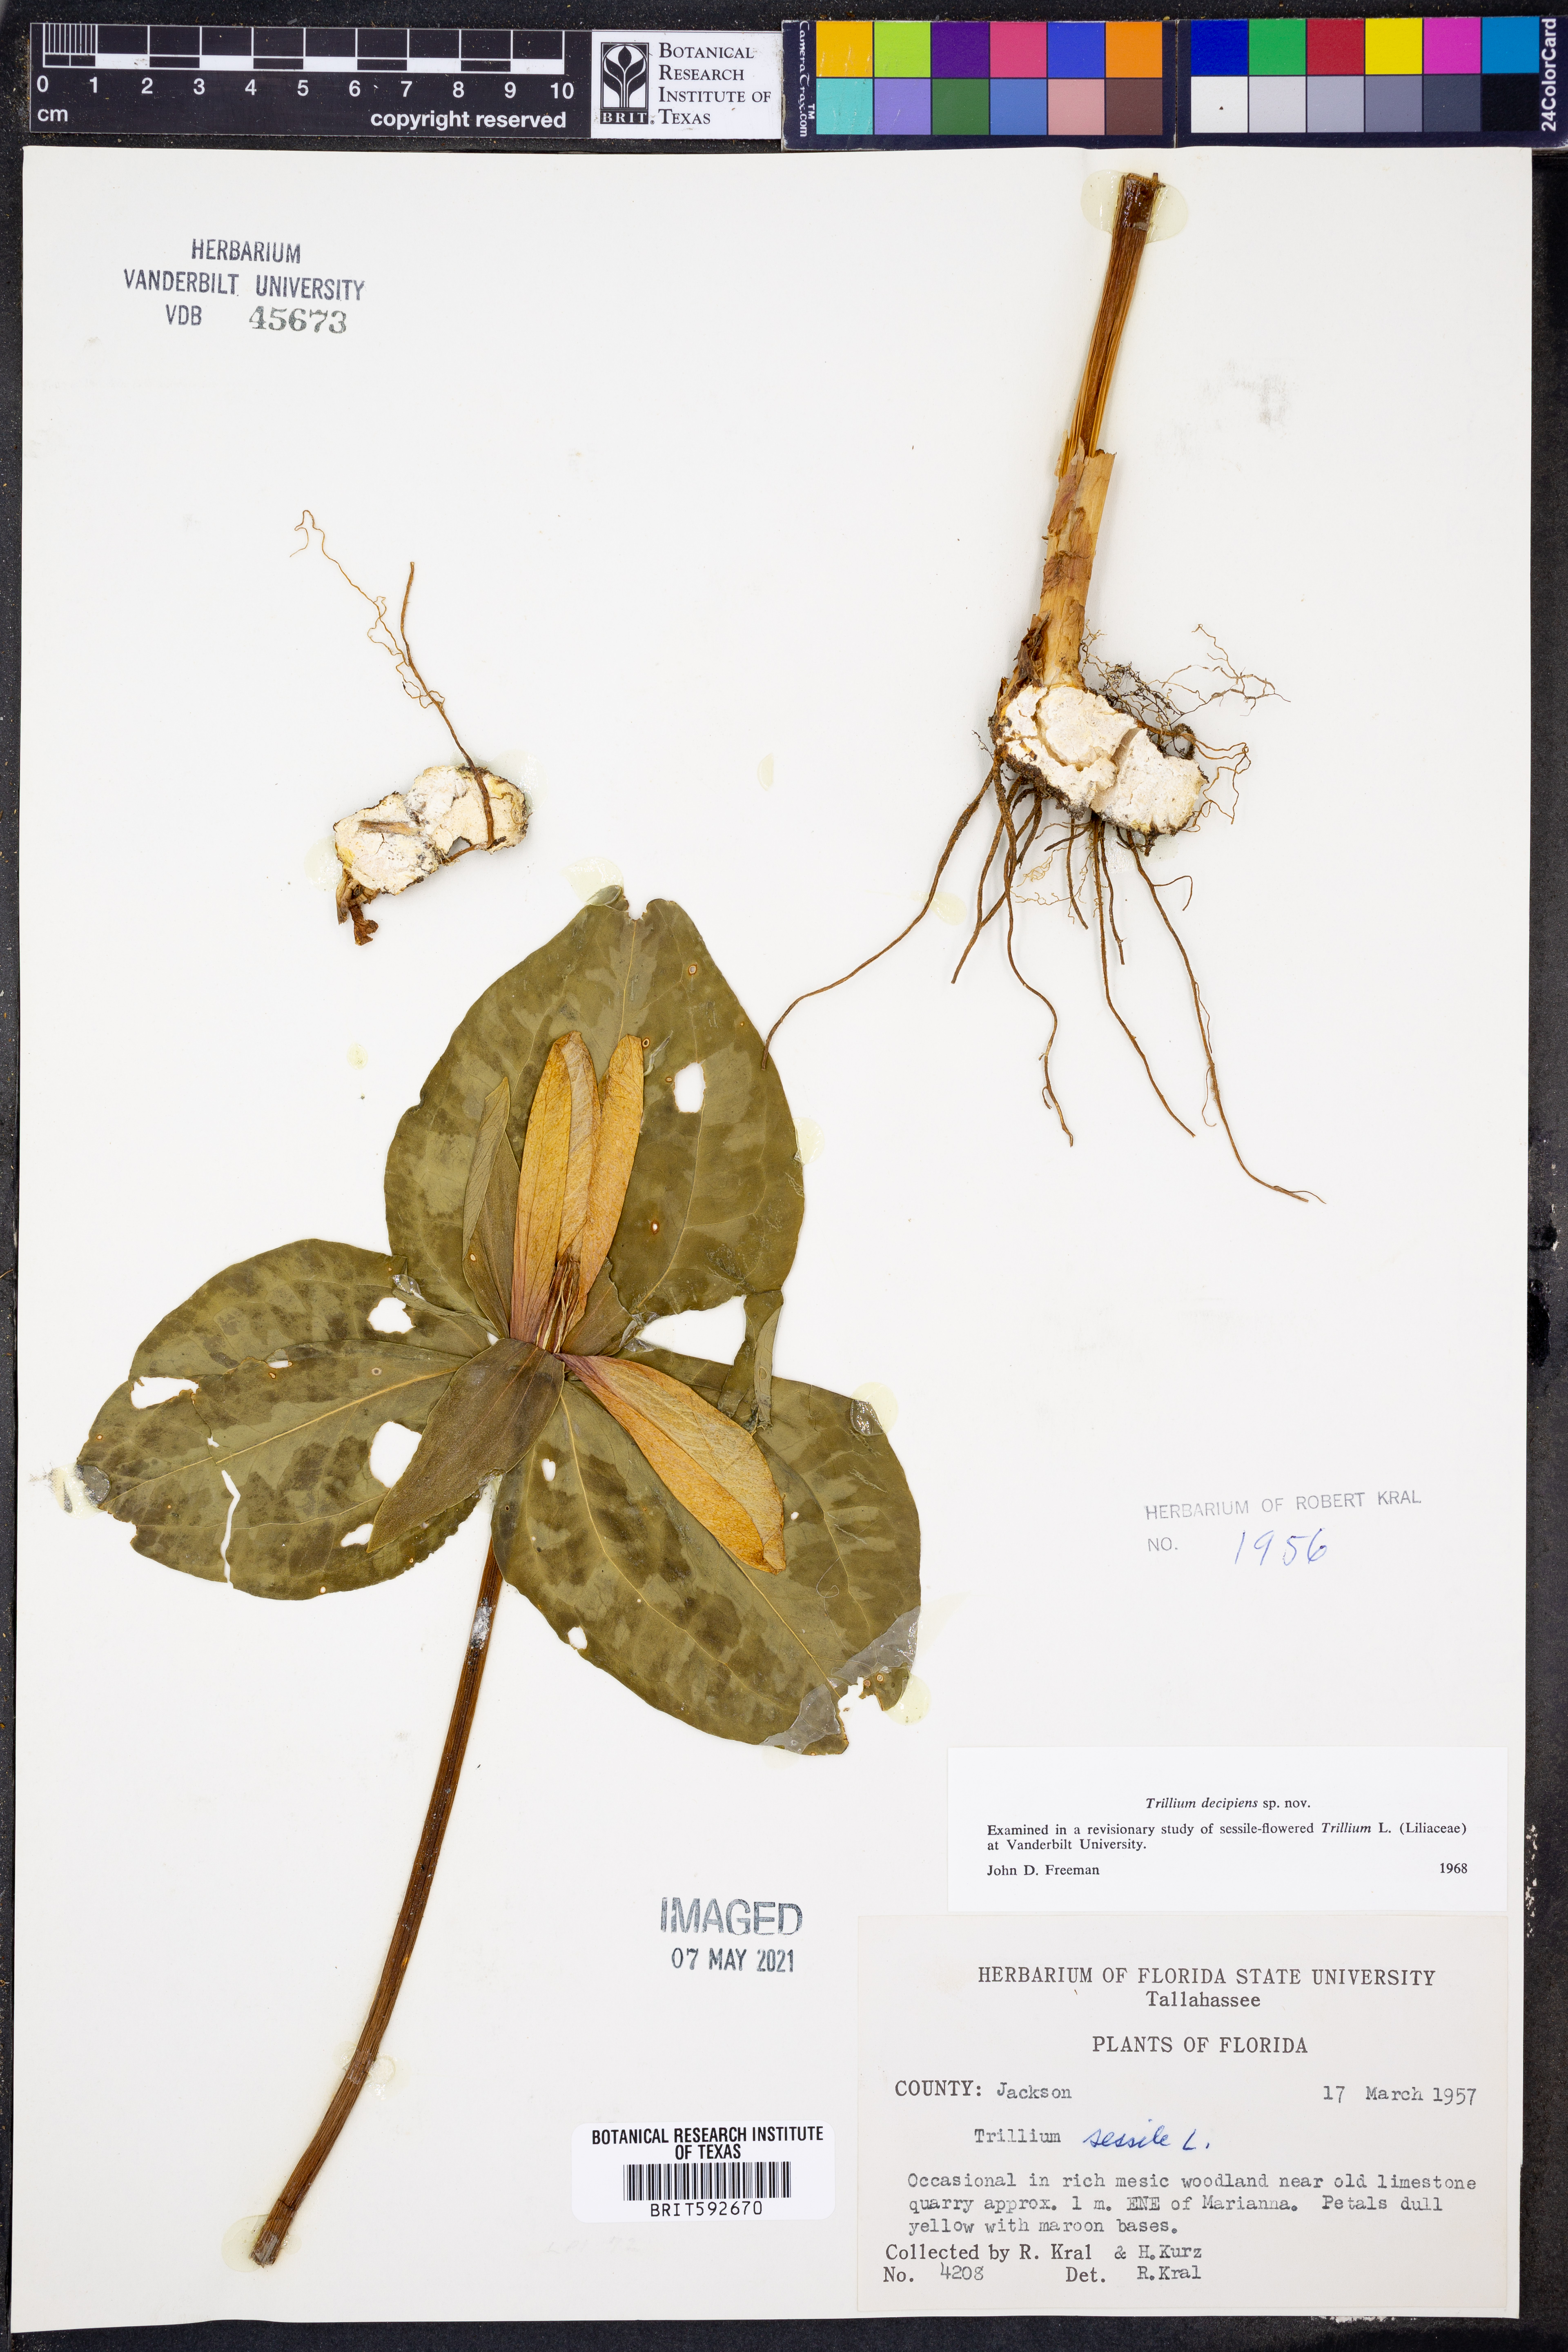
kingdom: Plantae
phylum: Tracheophyta
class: Liliopsida
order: Liliales
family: Melanthiaceae
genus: Trillium
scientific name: Trillium decipiens
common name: Chattahoochee river trillium
